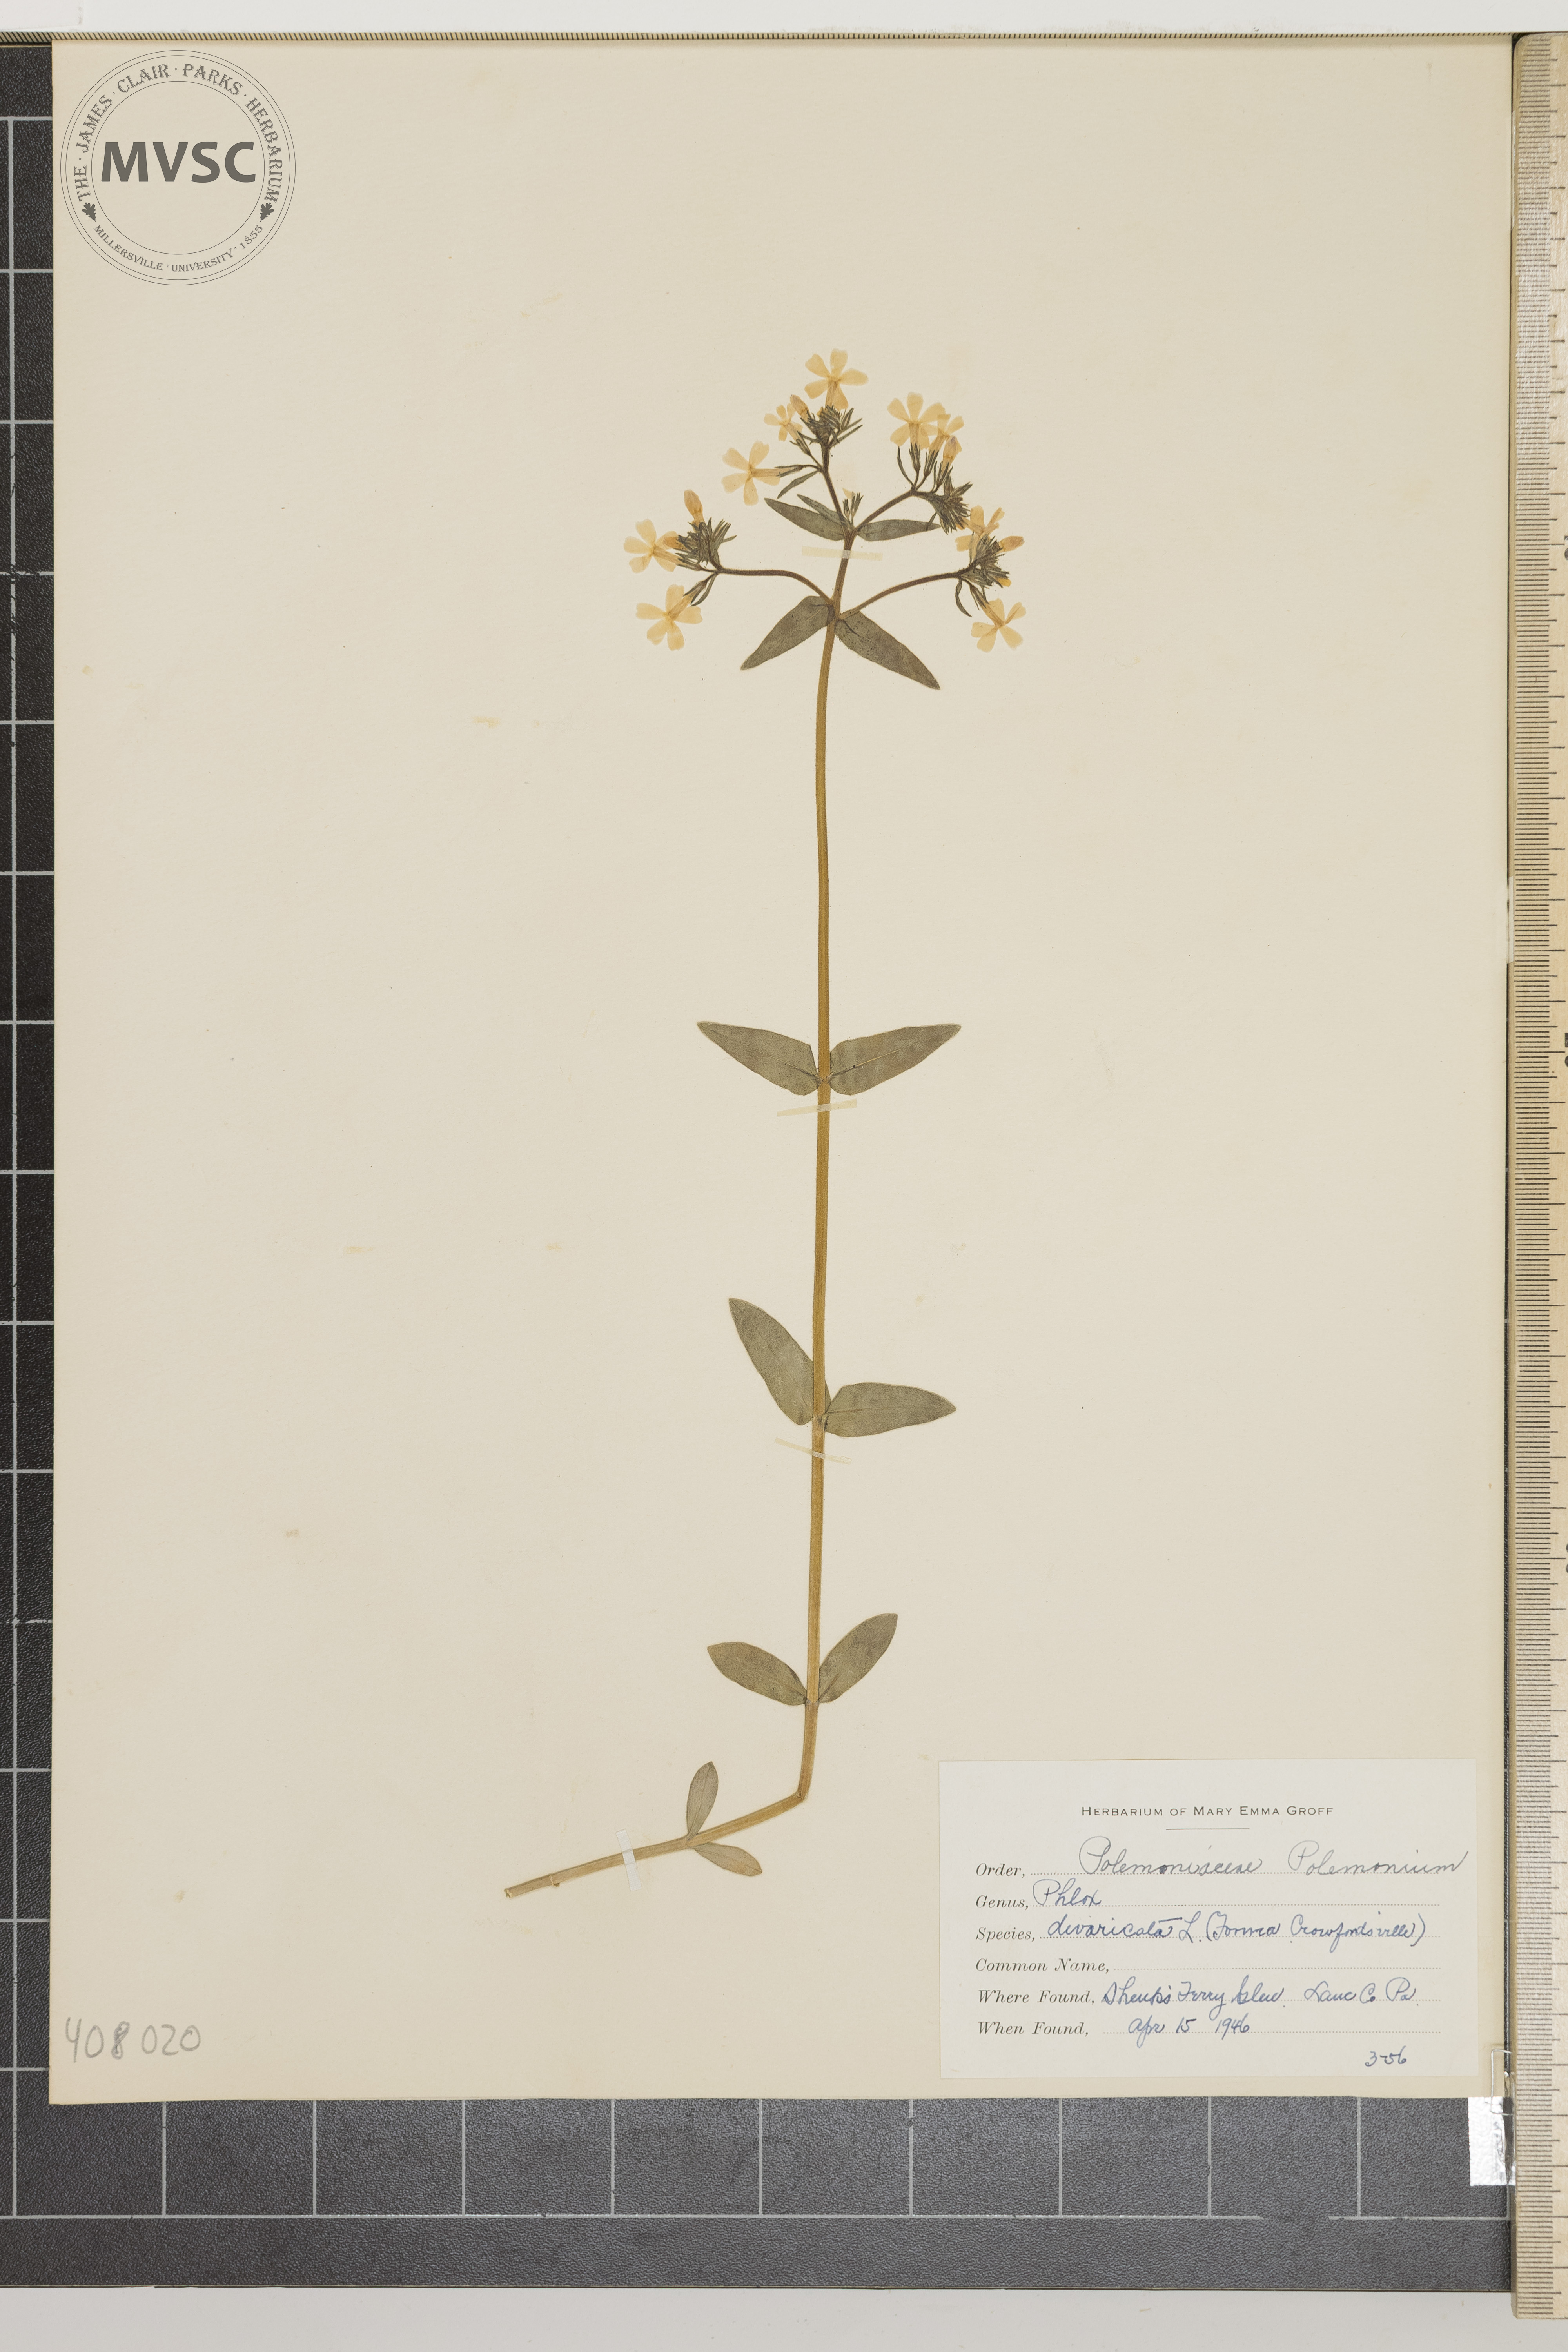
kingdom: Plantae
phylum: Tracheophyta
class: Magnoliopsida
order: Ericales
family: Polemoniaceae
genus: Phlox
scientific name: Phlox divaricata
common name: Wild Blue Phlox
